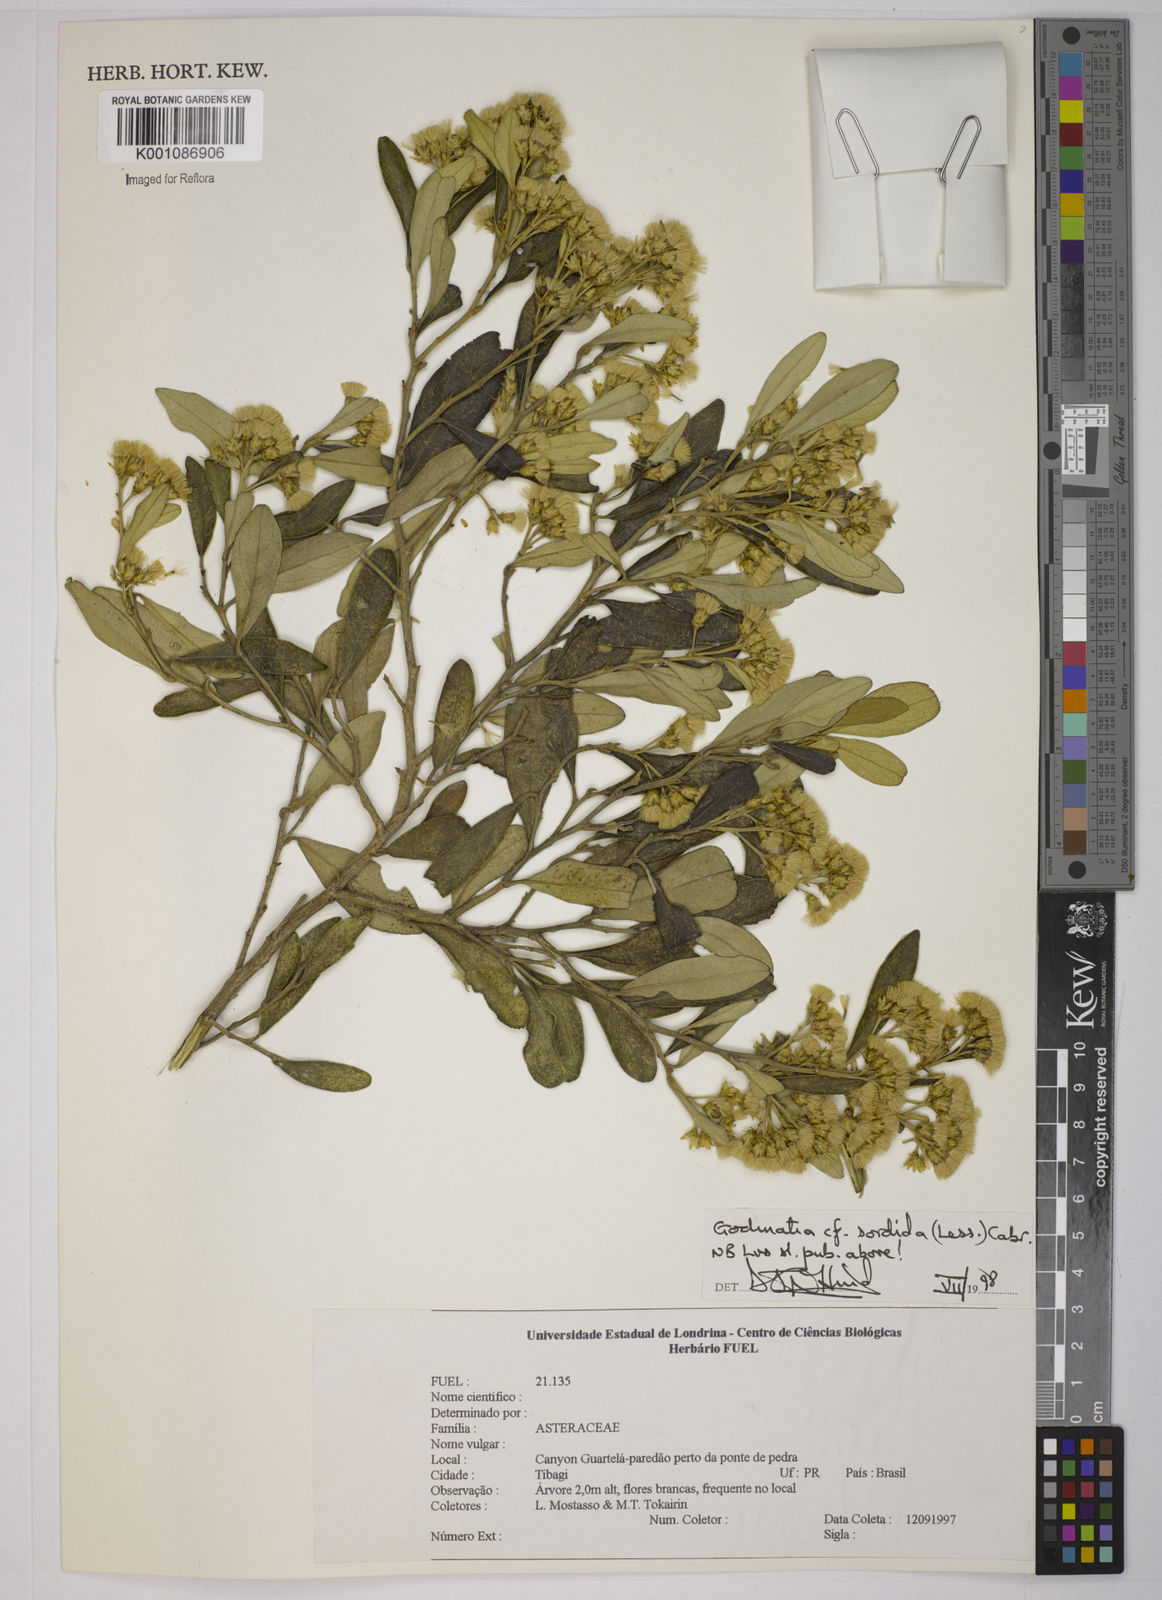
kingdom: Plantae
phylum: Tracheophyta
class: Magnoliopsida
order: Asterales
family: Asteraceae
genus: Moquiniastrum
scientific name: Moquiniastrum sordidum
